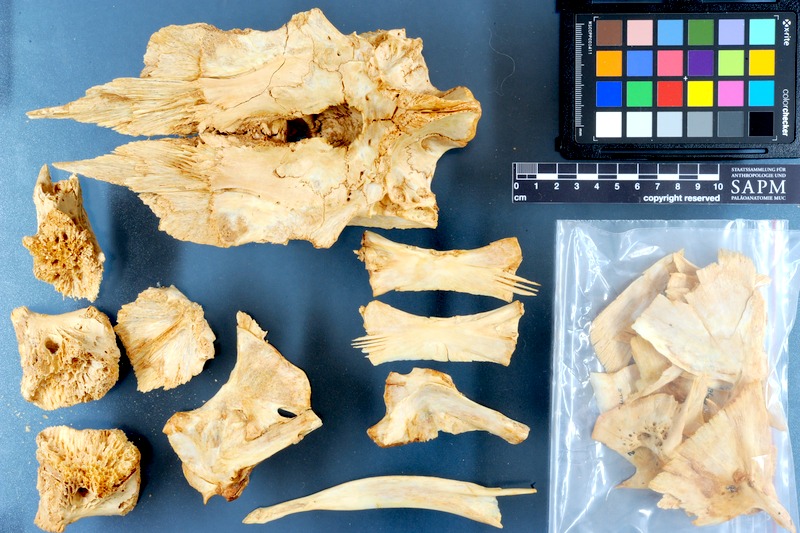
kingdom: Animalia
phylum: Chordata
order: Perciformes
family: Istiophoridae
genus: Makaira
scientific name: Makaira nigricans
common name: Blue marlin
